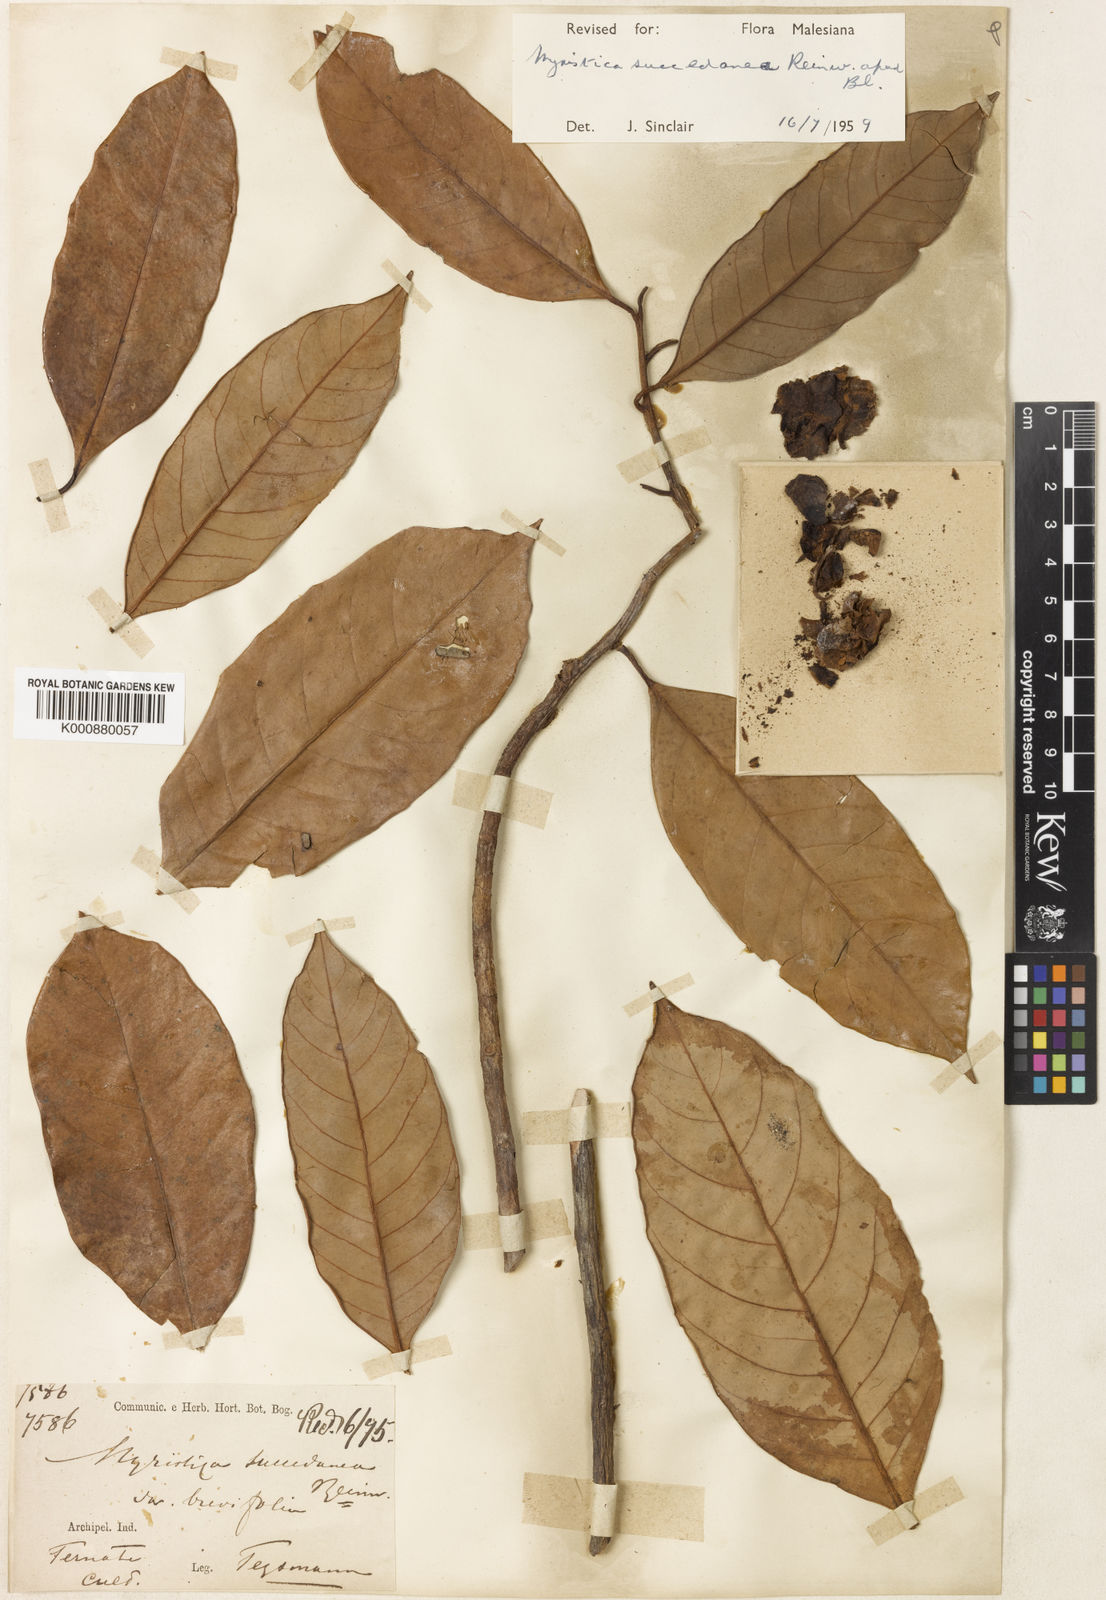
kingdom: Plantae
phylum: Tracheophyta
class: Magnoliopsida
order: Magnoliales
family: Myristicaceae
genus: Myristica
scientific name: Myristica succedanea
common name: Halmahera nutmeg
